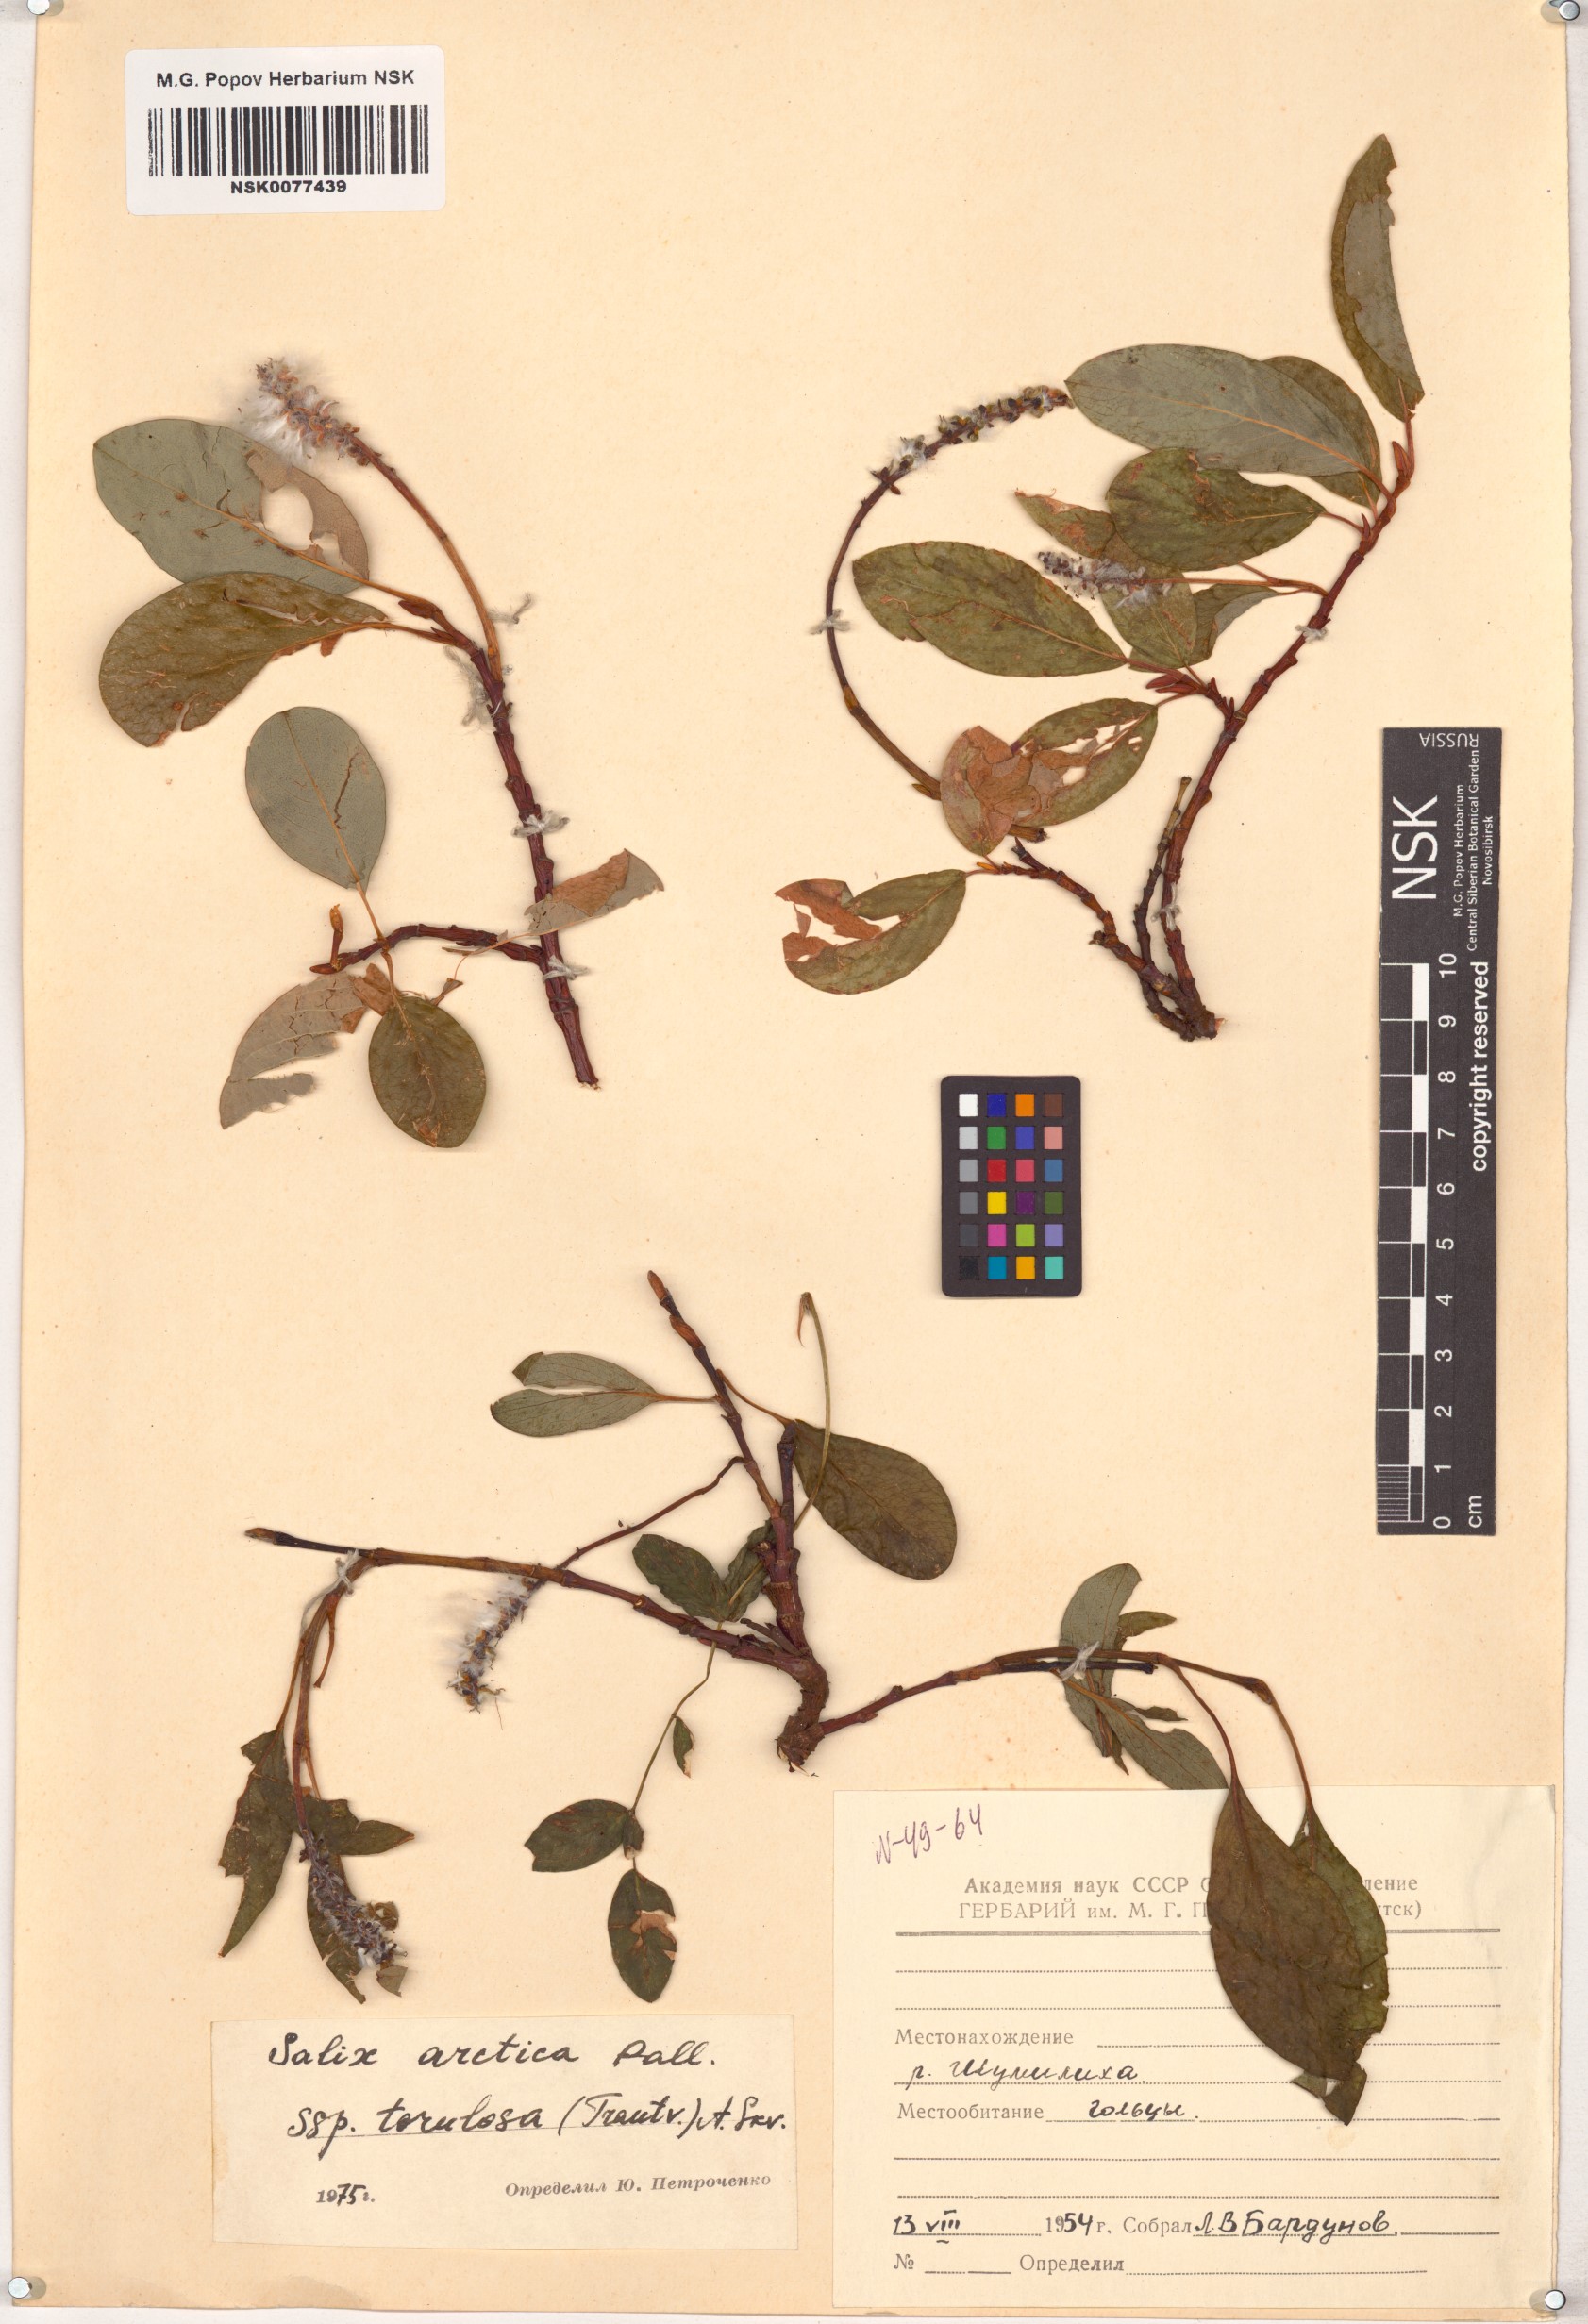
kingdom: Plantae
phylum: Tracheophyta
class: Magnoliopsida
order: Malpighiales
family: Salicaceae
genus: Salix
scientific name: Salix arctica
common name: Arctic willow
